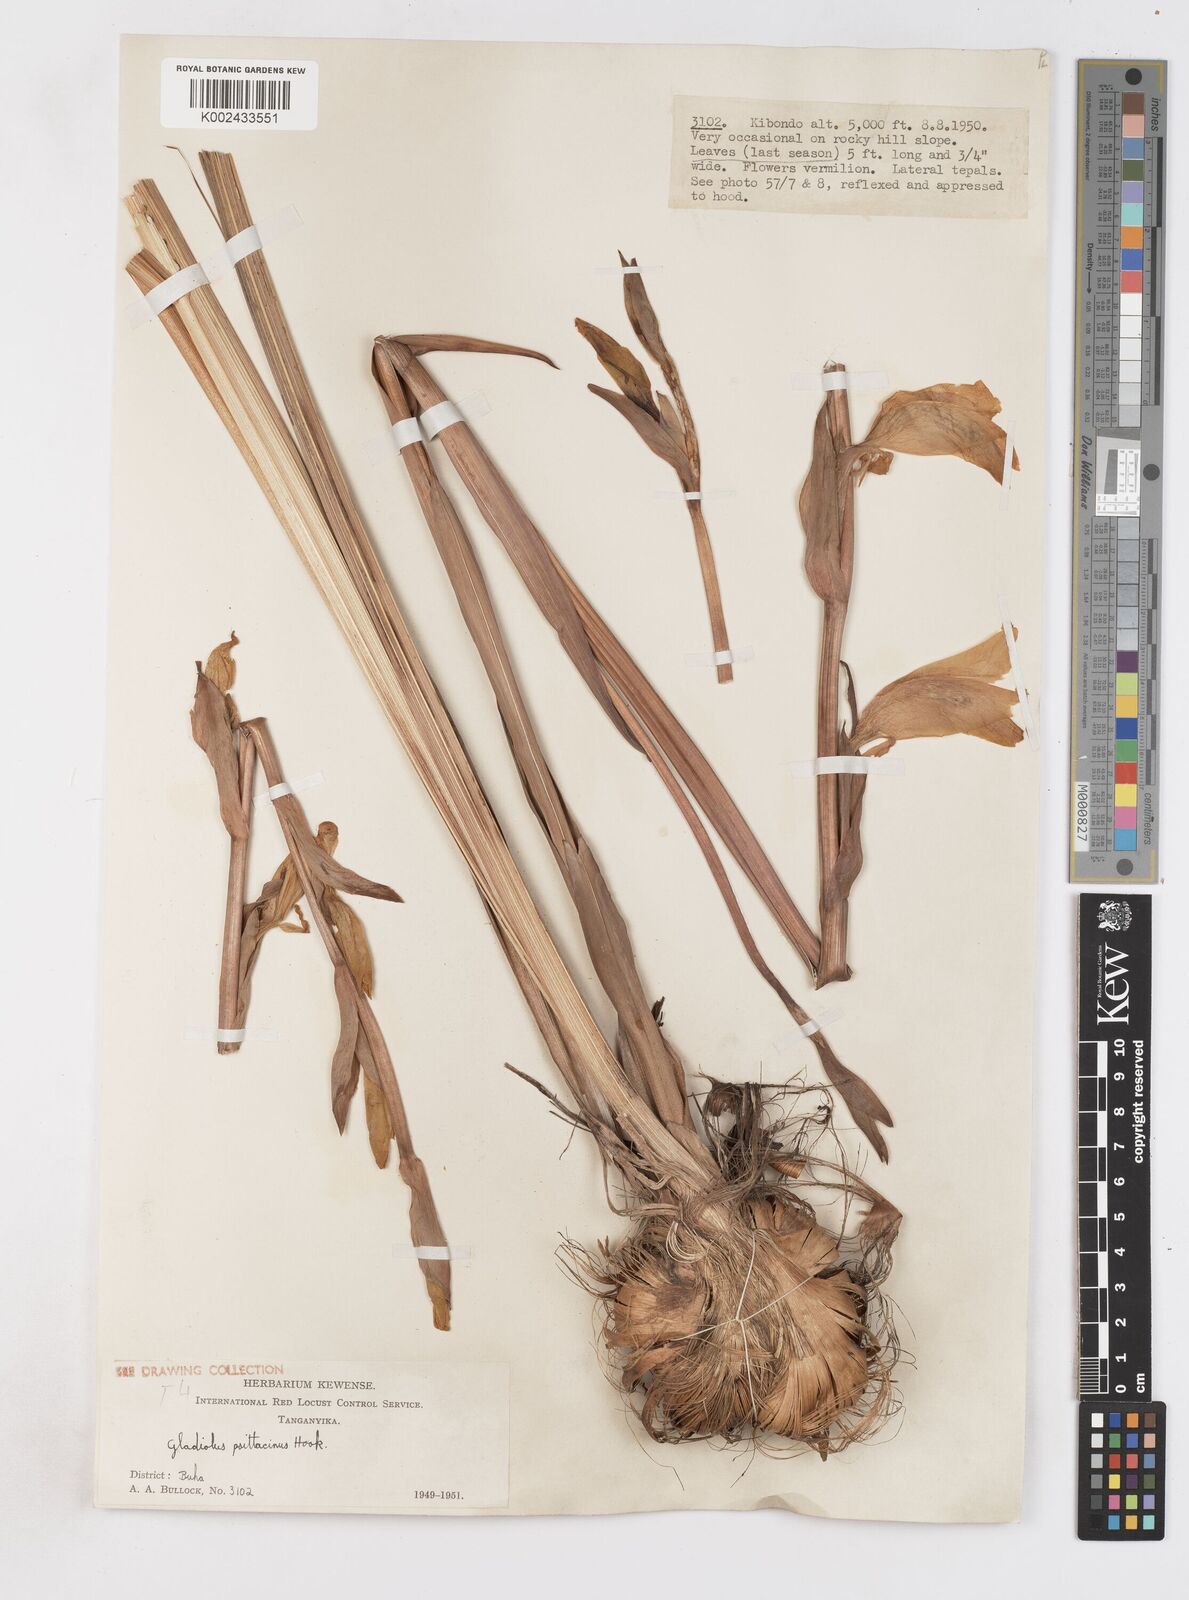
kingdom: Plantae
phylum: Tracheophyta
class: Liliopsida
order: Asparagales
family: Iridaceae
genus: Gladiolus
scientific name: Gladiolus dalenii
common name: Cornflag
